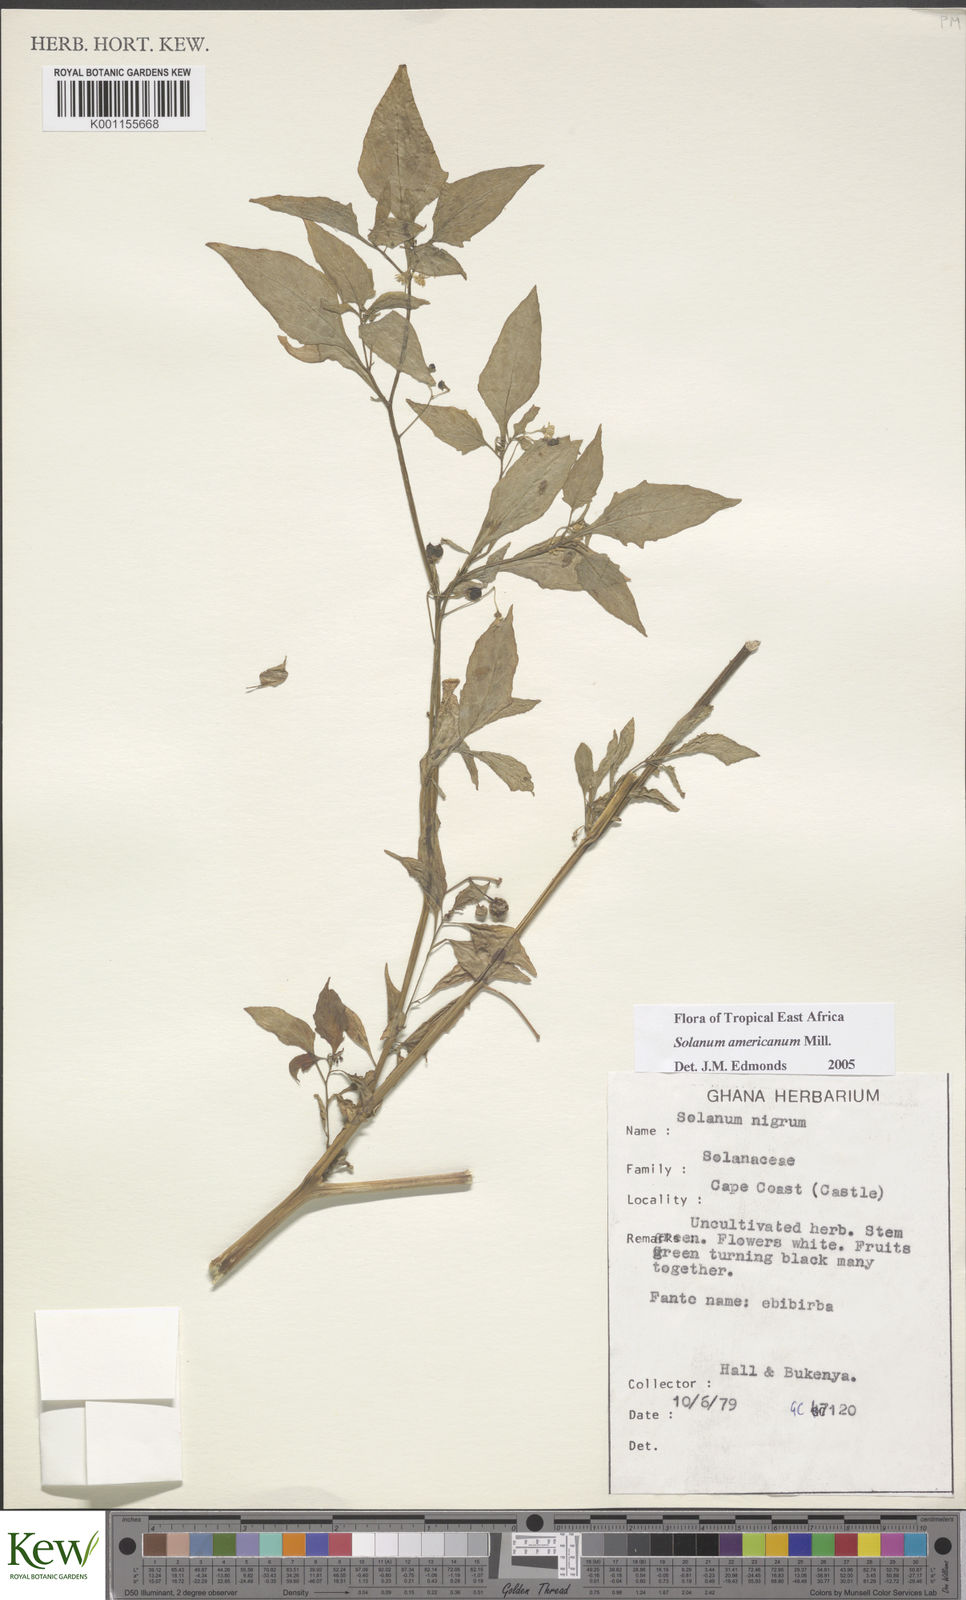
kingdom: Plantae
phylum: Tracheophyta
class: Magnoliopsida
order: Solanales
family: Solanaceae
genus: Solanum
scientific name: Solanum americanum
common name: American black nightshade
